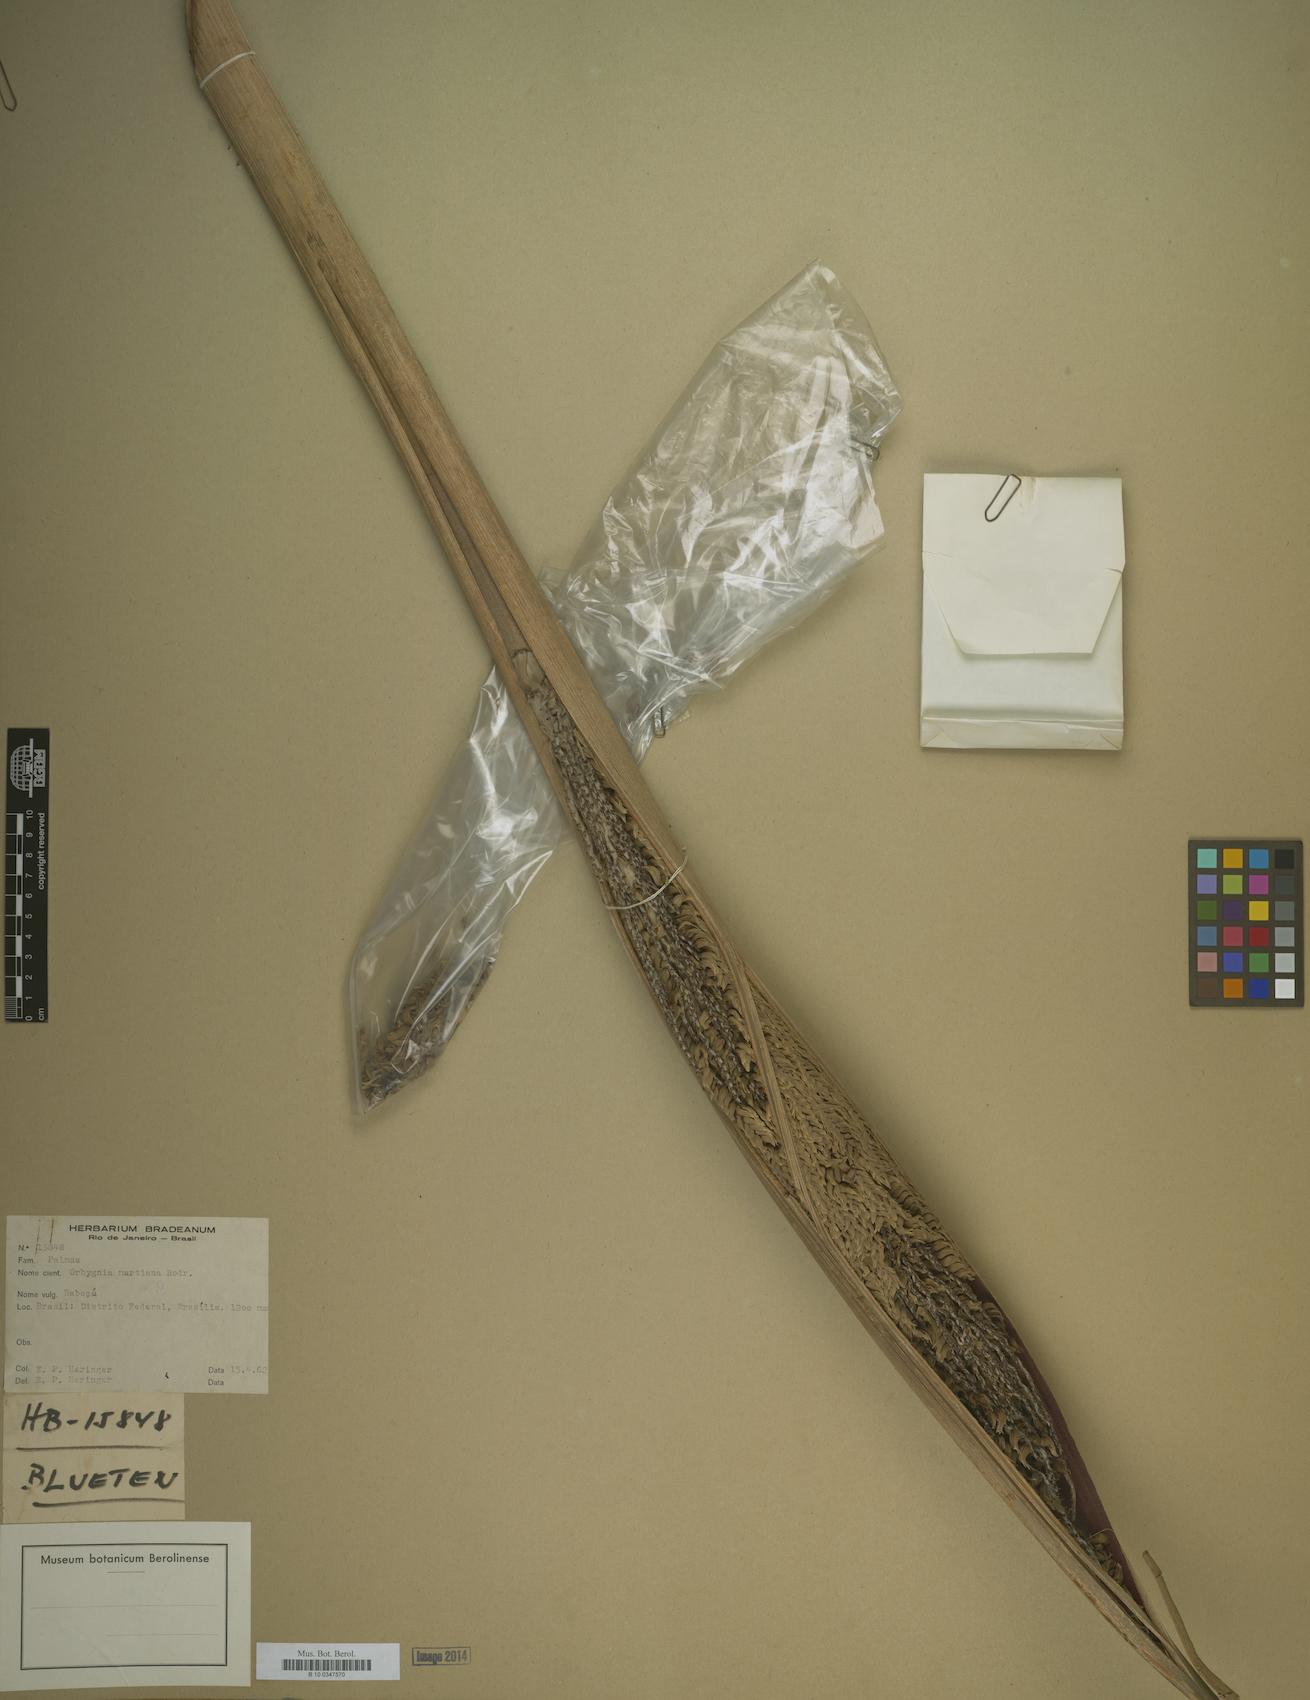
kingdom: Plantae
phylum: Tracheophyta
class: Liliopsida
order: Arecales
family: Arecaceae
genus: Attalea
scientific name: Attalea speciosa
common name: Babassu palm
